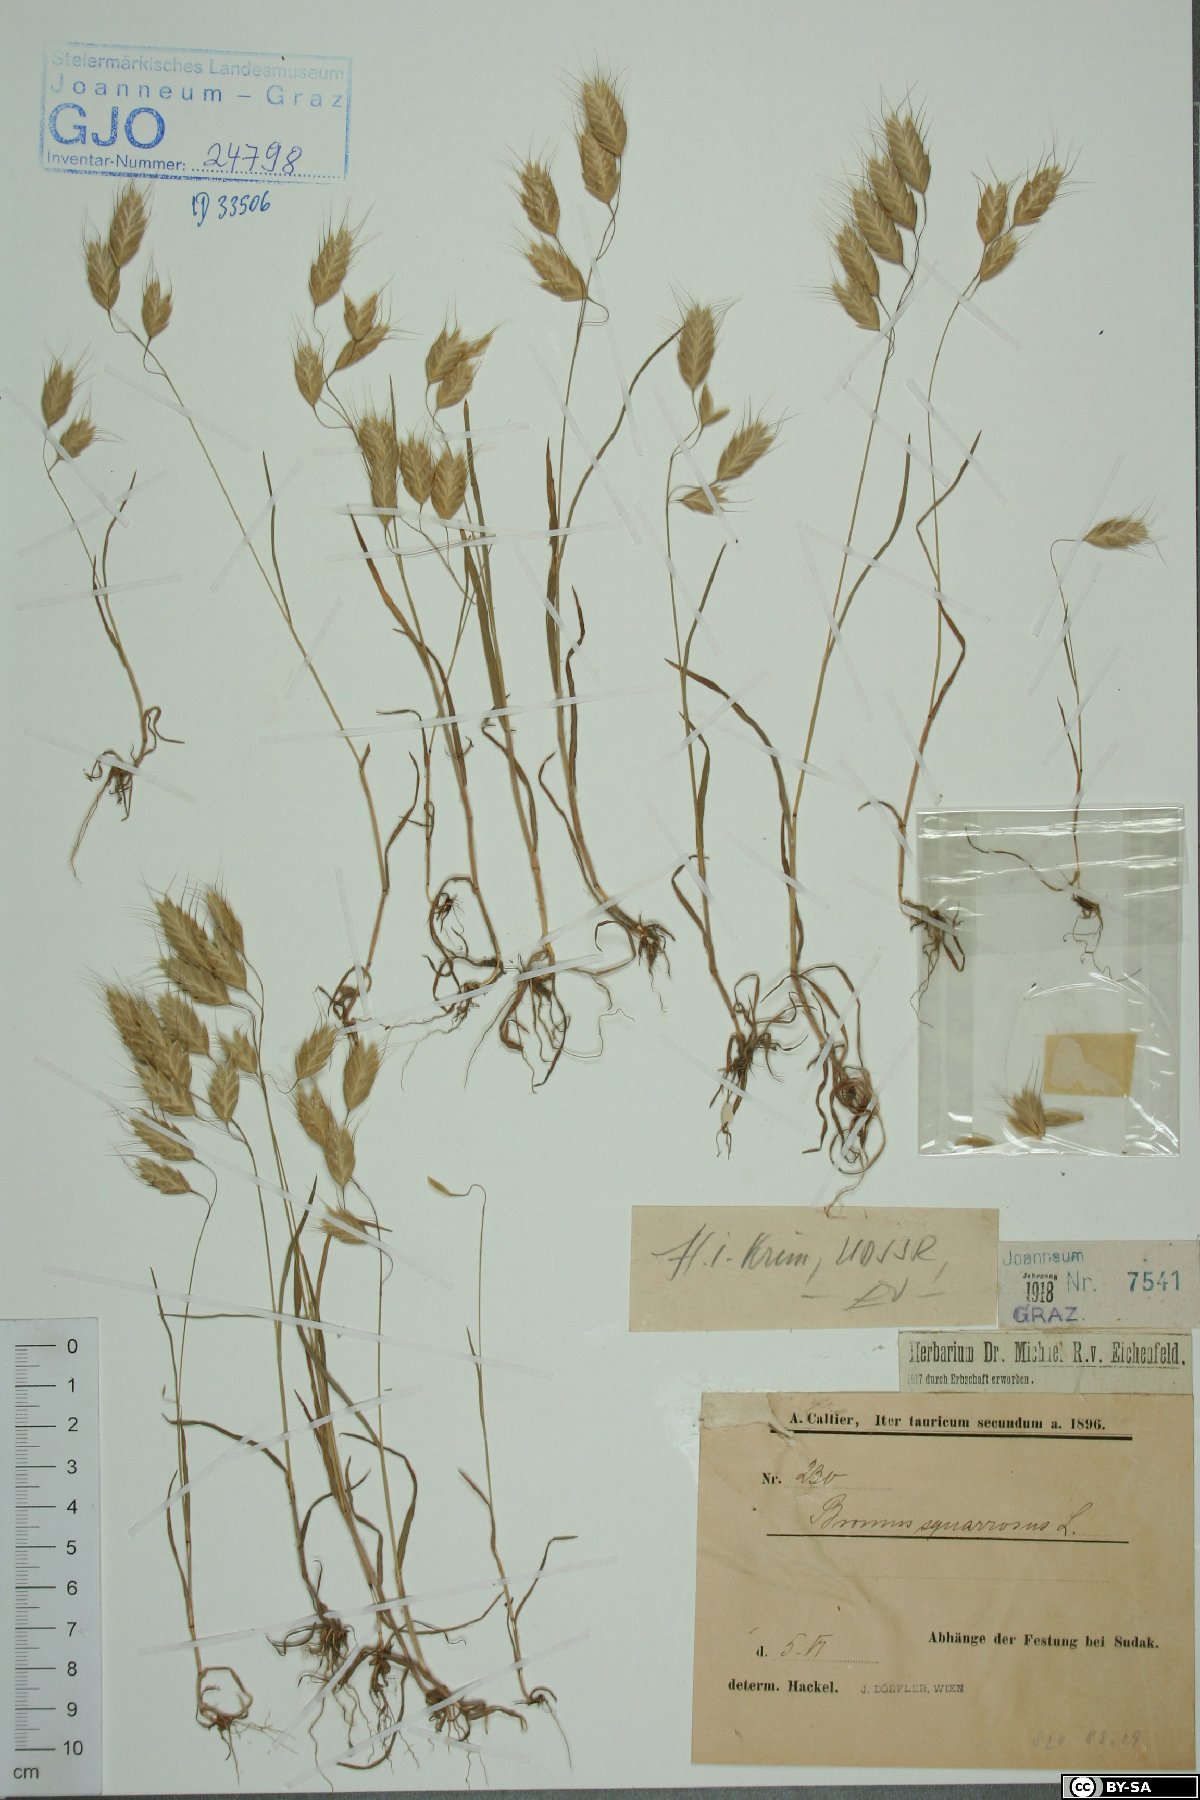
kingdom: Plantae
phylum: Tracheophyta
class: Liliopsida
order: Poales
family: Poaceae
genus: Bromus
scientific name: Bromus squarrosus
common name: Corn brome
